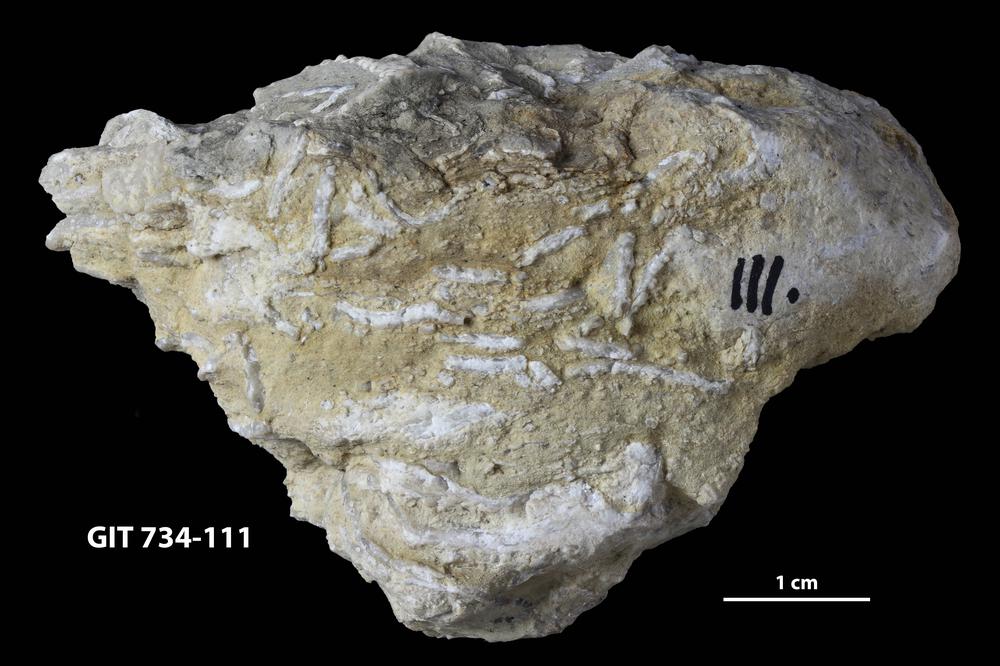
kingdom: Animalia
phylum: Cnidaria
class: Anthozoa
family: Halysitidae
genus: Eocatenipora
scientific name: Eocatenipora
